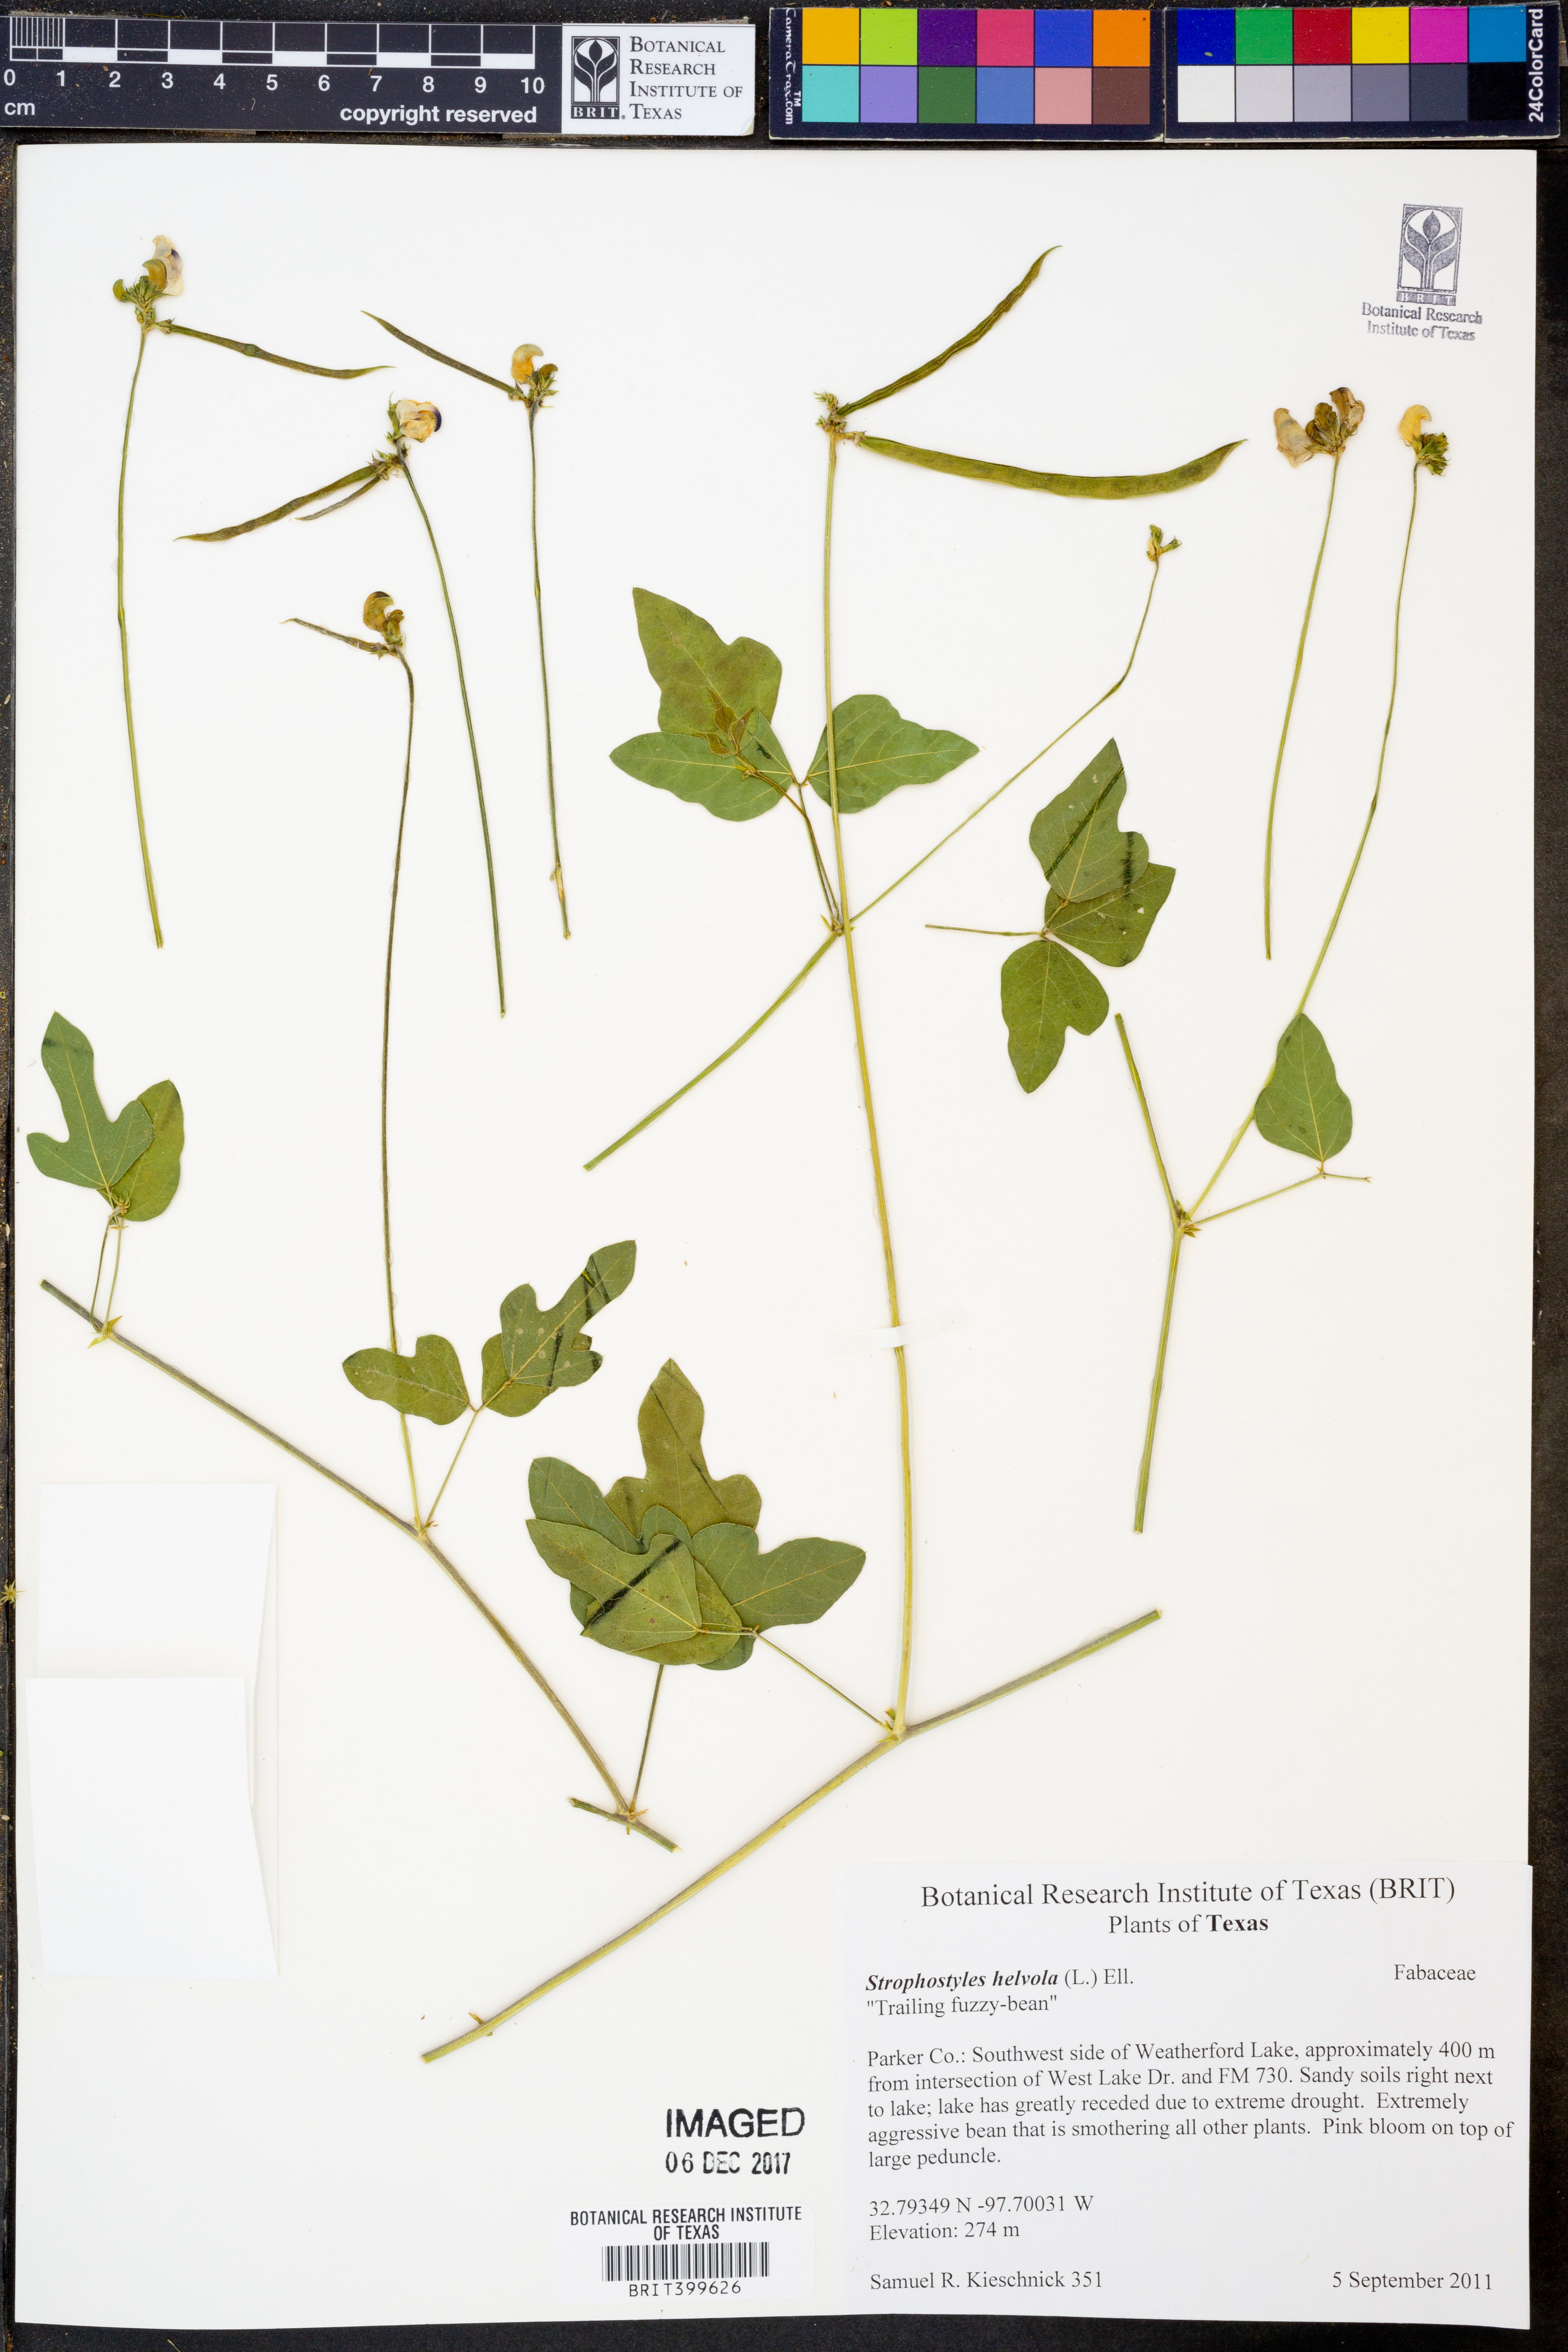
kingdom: Plantae
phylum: Tracheophyta
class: Magnoliopsida
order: Fabales
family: Fabaceae
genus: Strophostyles
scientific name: Strophostyles helvola
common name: Trailing wild bean
